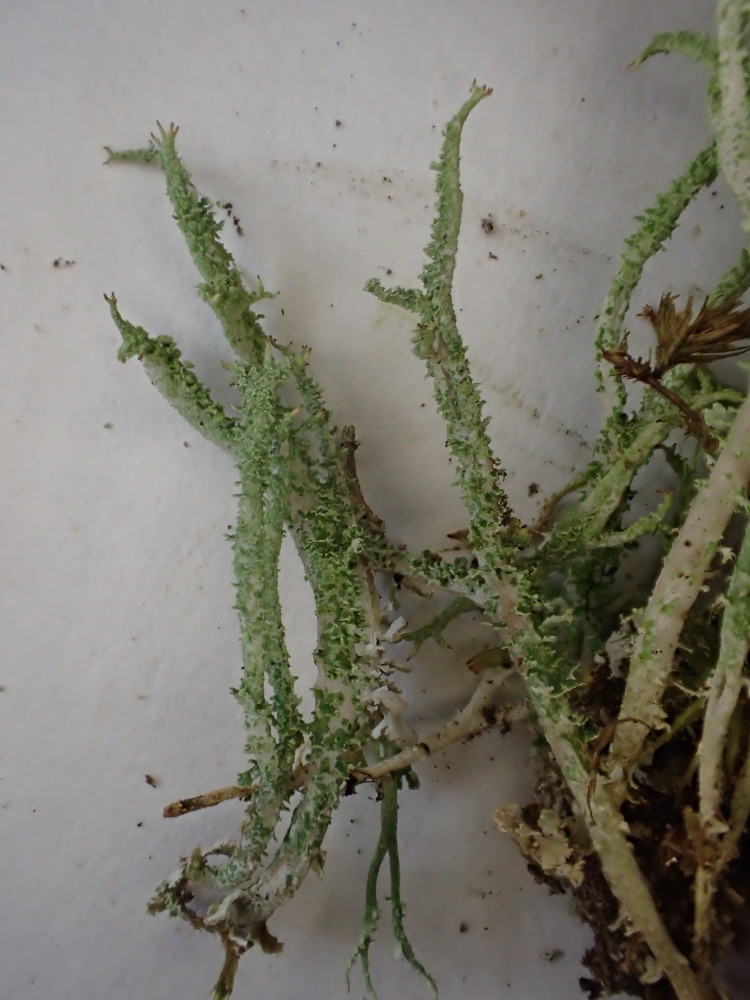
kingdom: Fungi
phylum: Ascomycota
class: Lecanoromycetes
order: Lecanorales
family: Cladoniaceae
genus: Cladonia
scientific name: Cladonia scabriuscula
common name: ru bægerlav
